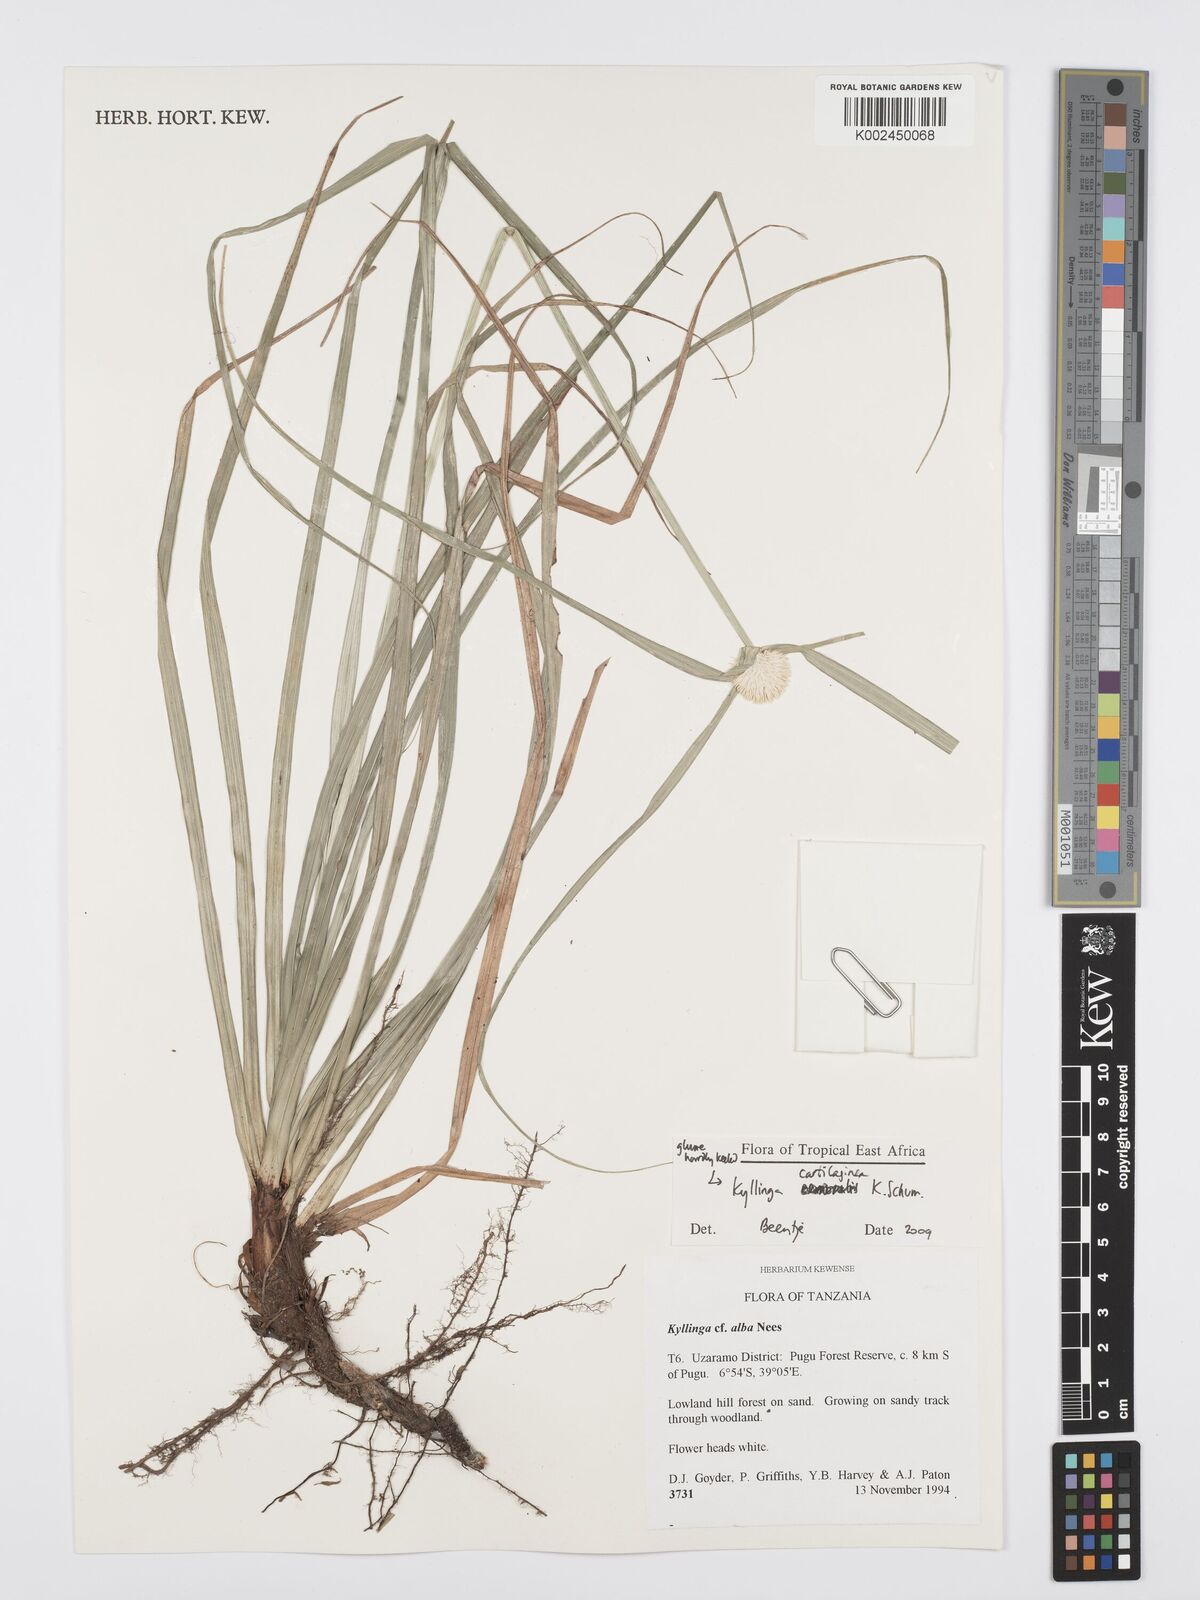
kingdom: Plantae
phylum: Tracheophyta
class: Liliopsida
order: Poales
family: Cyperaceae
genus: Cyperus
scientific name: Cyperus cartilagineus
